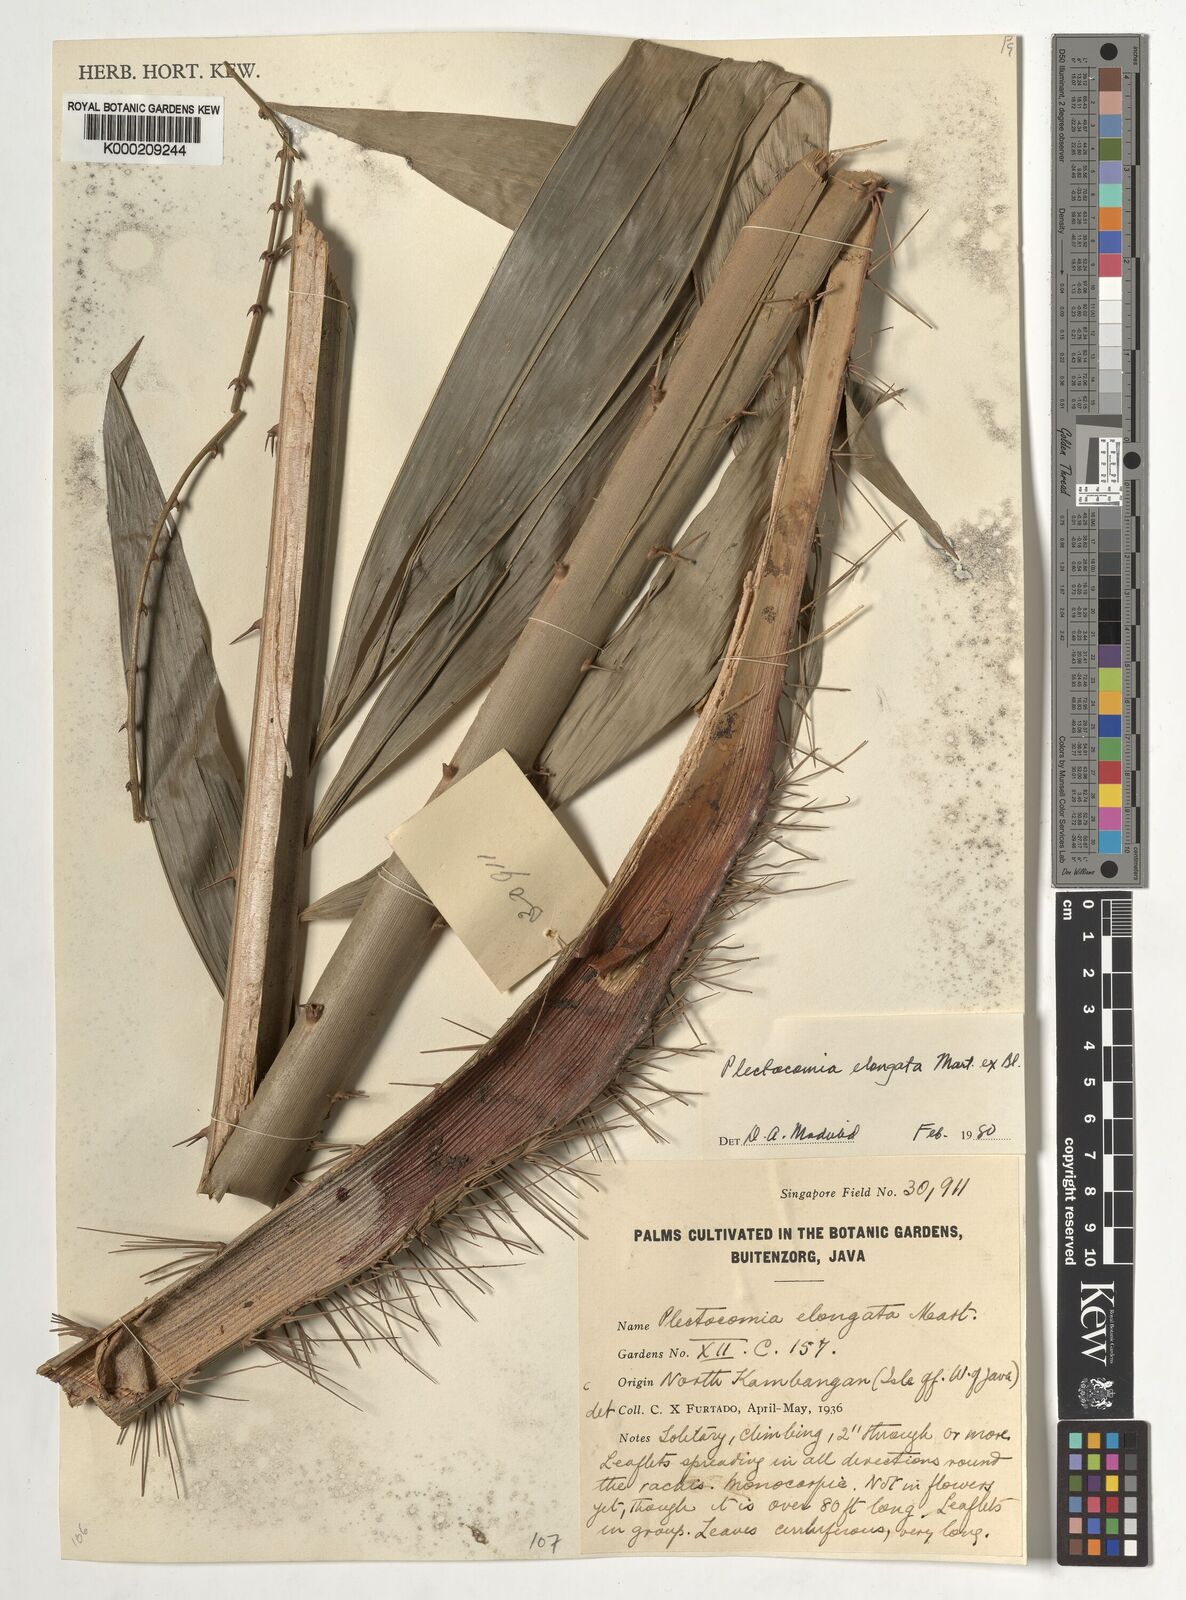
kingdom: Plantae
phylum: Tracheophyta
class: Liliopsida
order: Arecales
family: Arecaceae
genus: Plectocomia
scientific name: Plectocomia elongata
